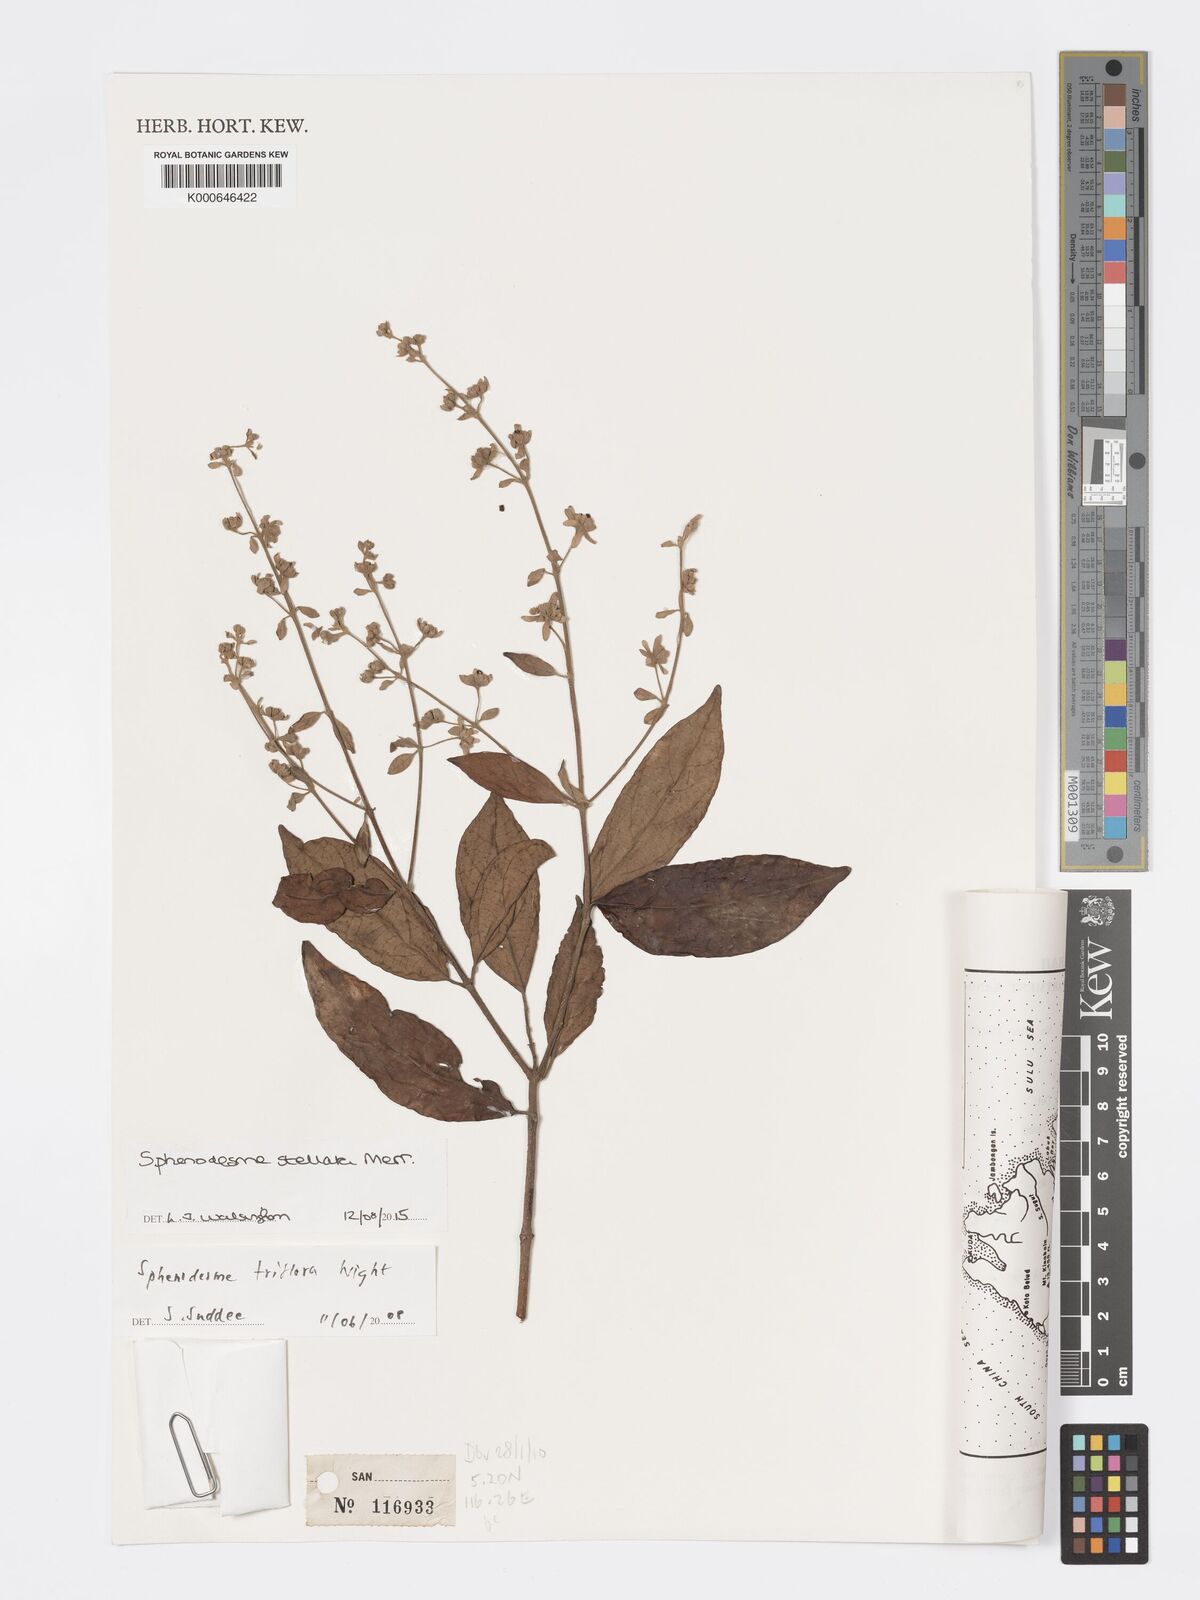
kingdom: Plantae
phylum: Tracheophyta
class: Magnoliopsida
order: Lamiales
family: Lamiaceae
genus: Sphenodesme
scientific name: Sphenodesme stellata
